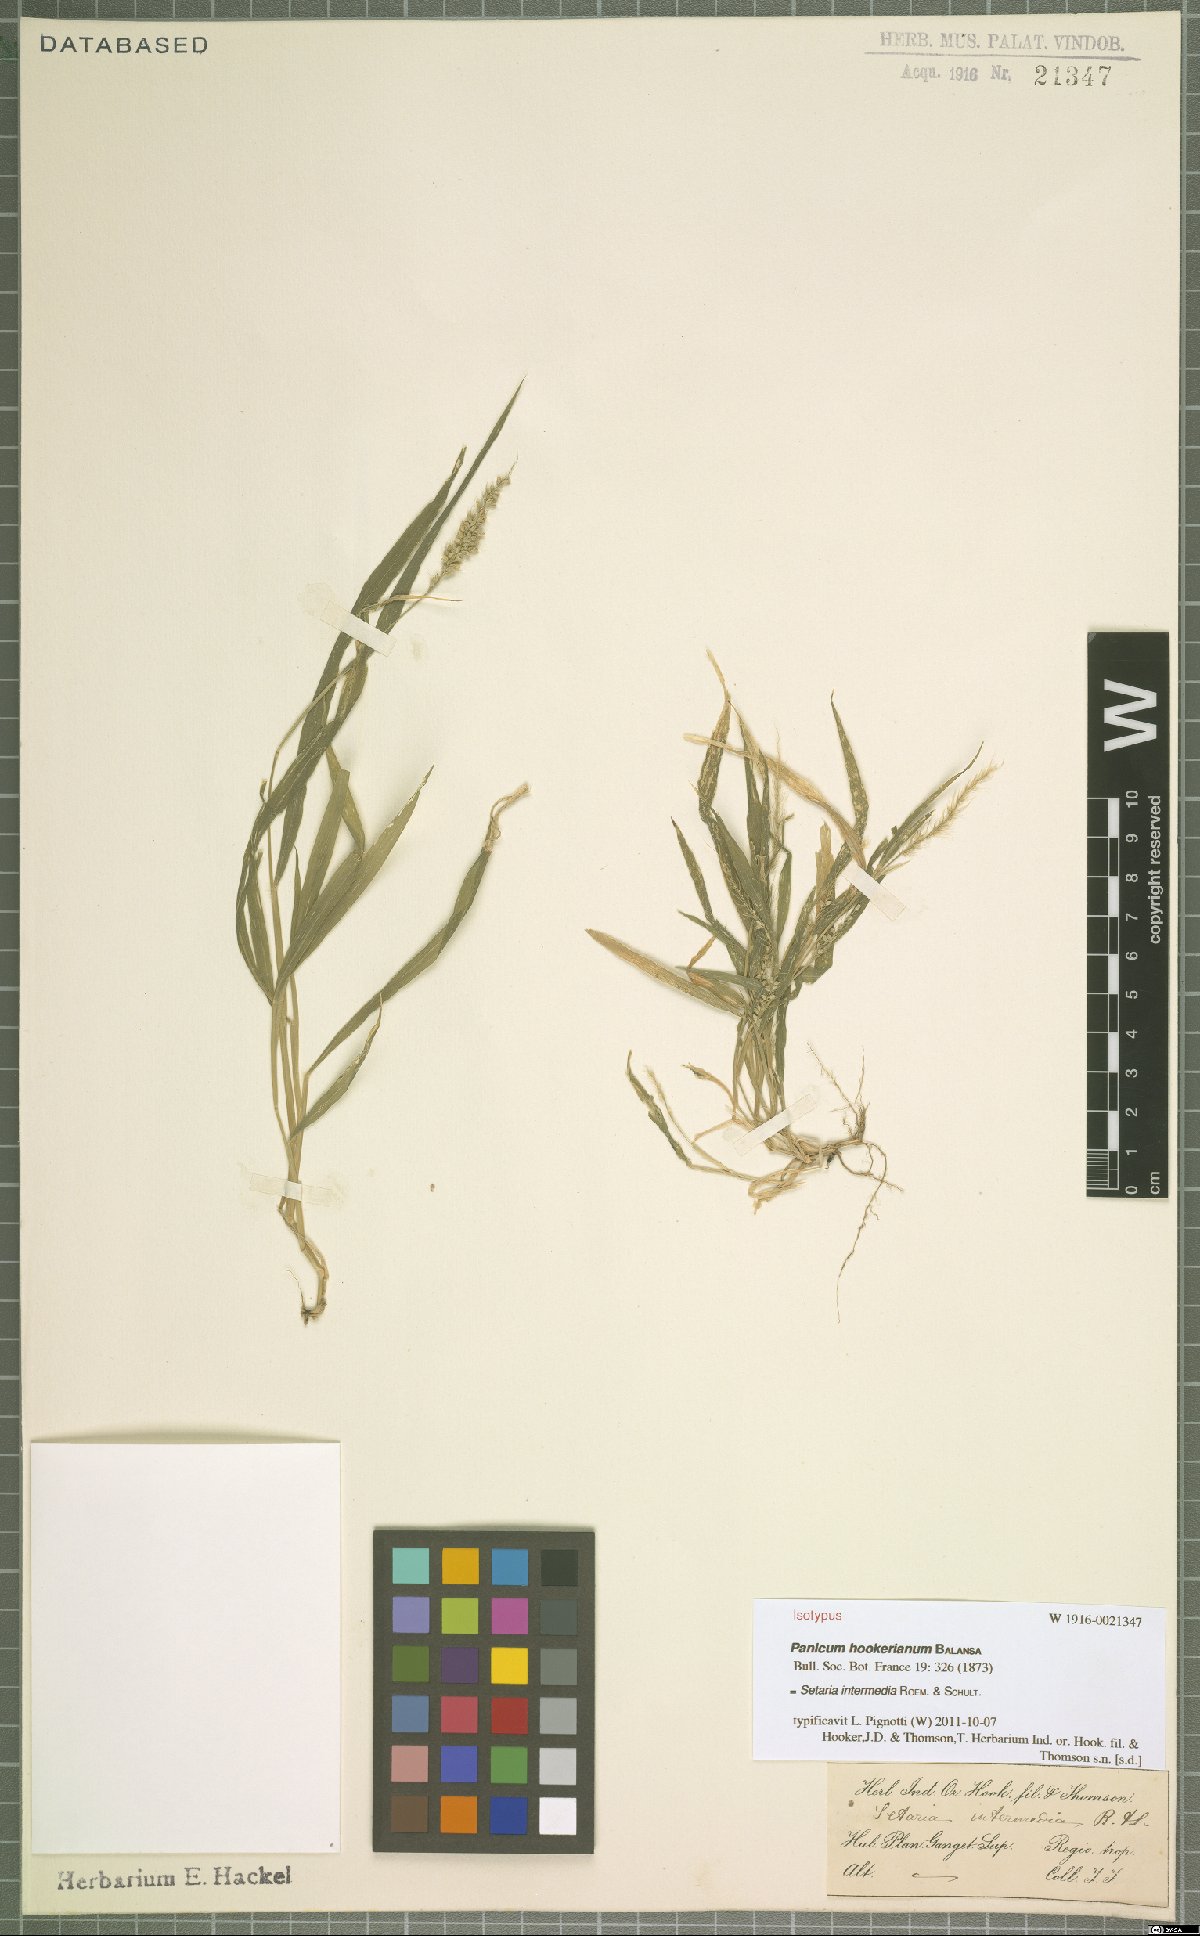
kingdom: Plantae
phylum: Tracheophyta
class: Liliopsida
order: Poales
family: Poaceae
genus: Setaria
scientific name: Setaria intermedia
